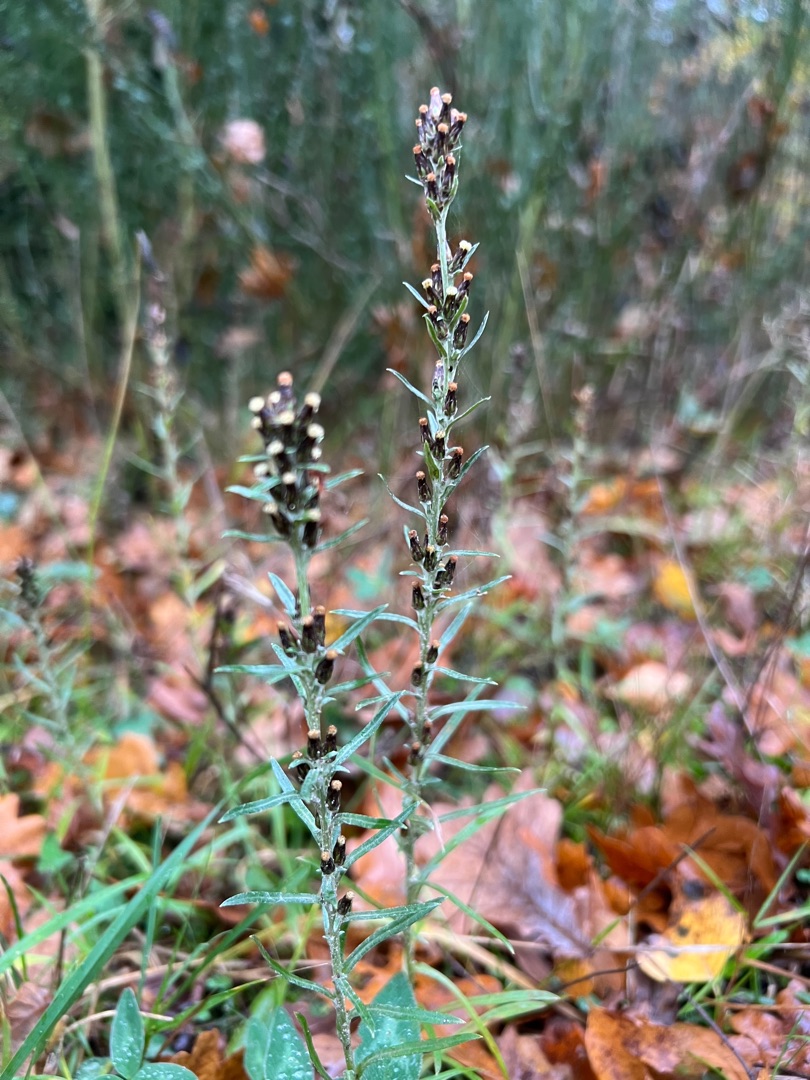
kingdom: Plantae
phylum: Tracheophyta
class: Magnoliopsida
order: Asterales
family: Asteraceae
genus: Omalotheca
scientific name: Omalotheca sylvatica
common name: Rank evighedsblomst
